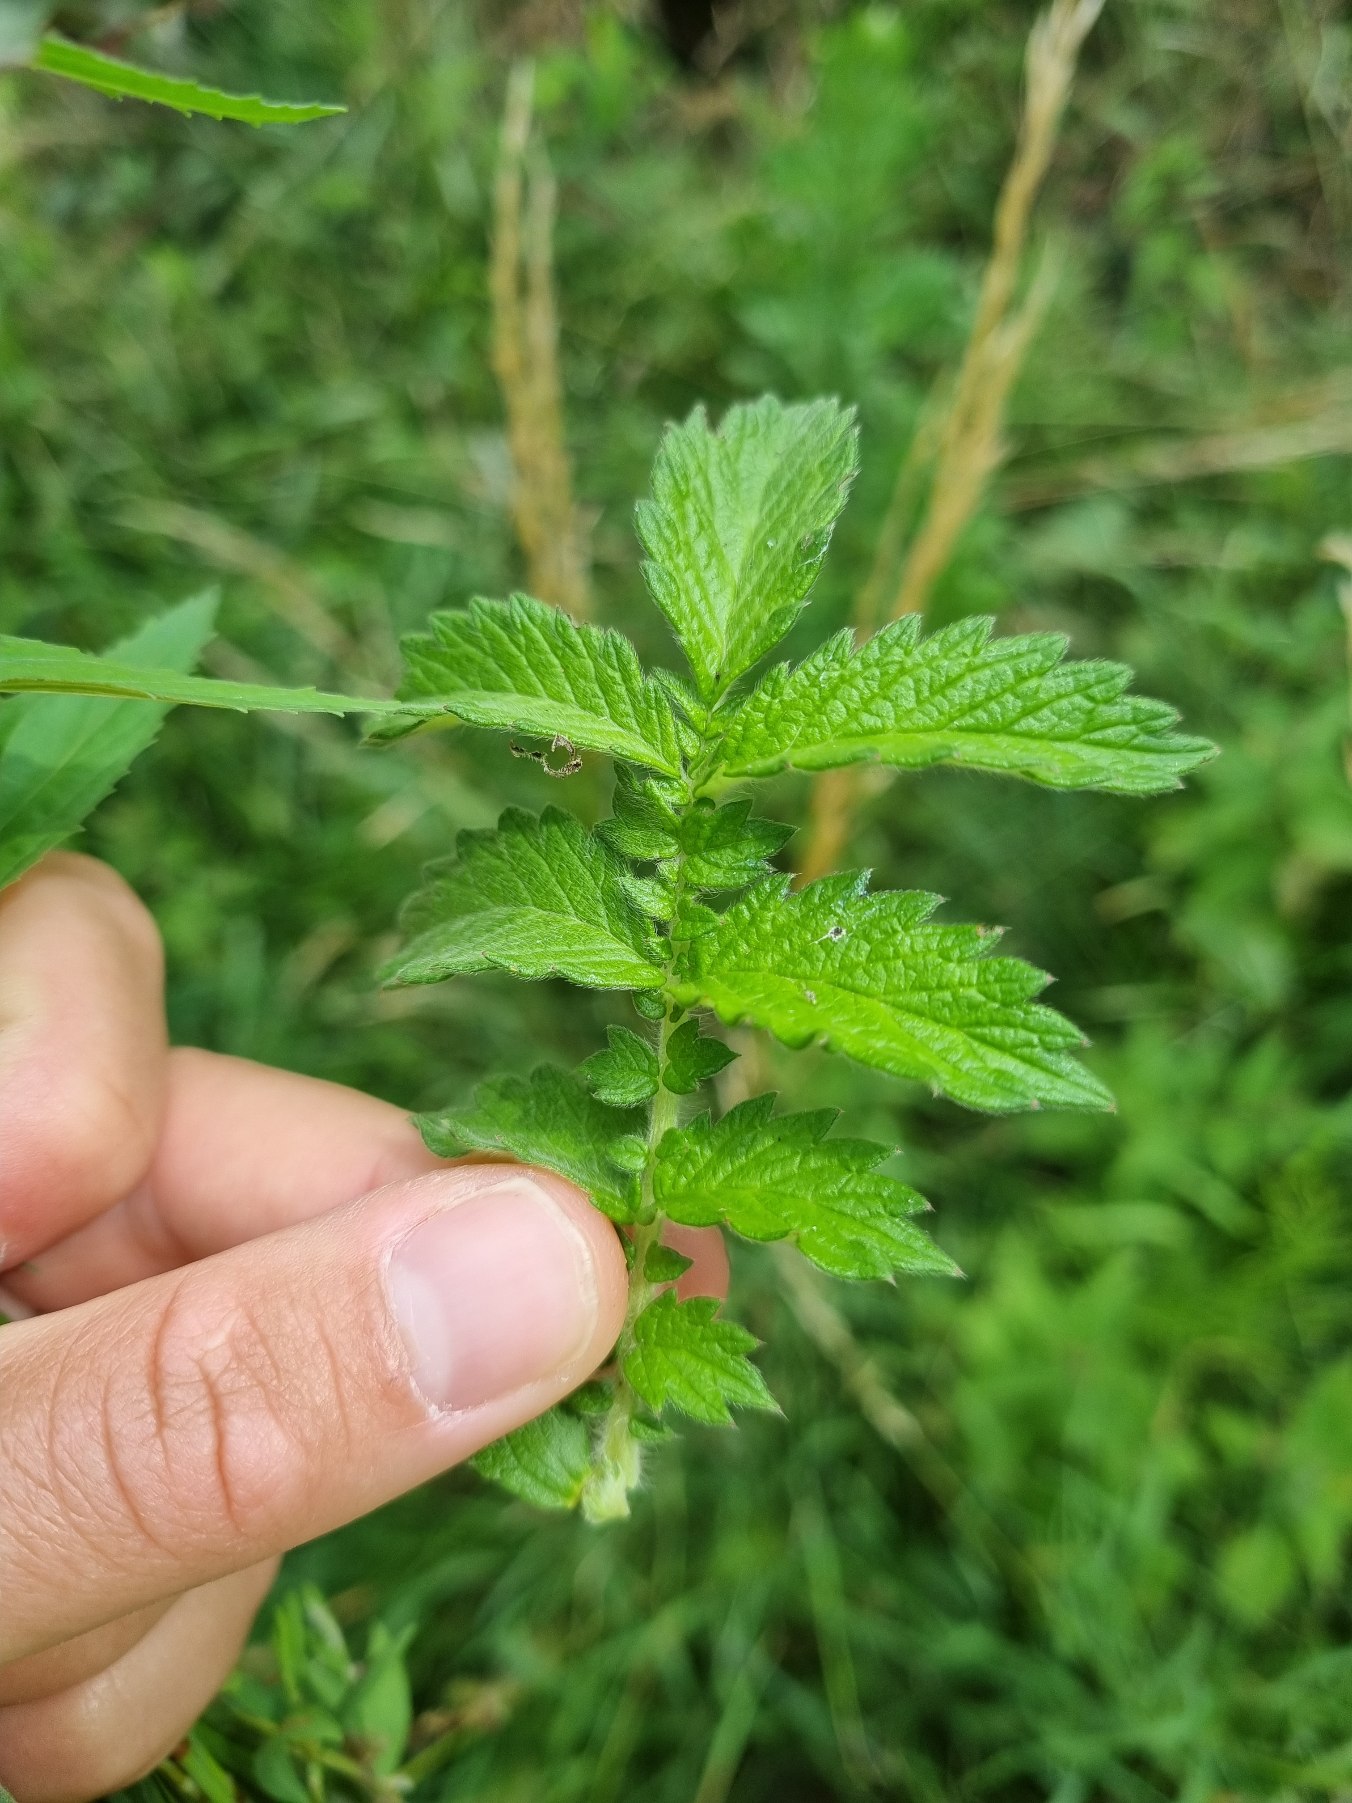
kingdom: Plantae
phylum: Tracheophyta
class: Magnoliopsida
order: Rosales
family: Rosaceae
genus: Agrimonia
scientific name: Agrimonia eupatoria
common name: Almindelig agermåne
